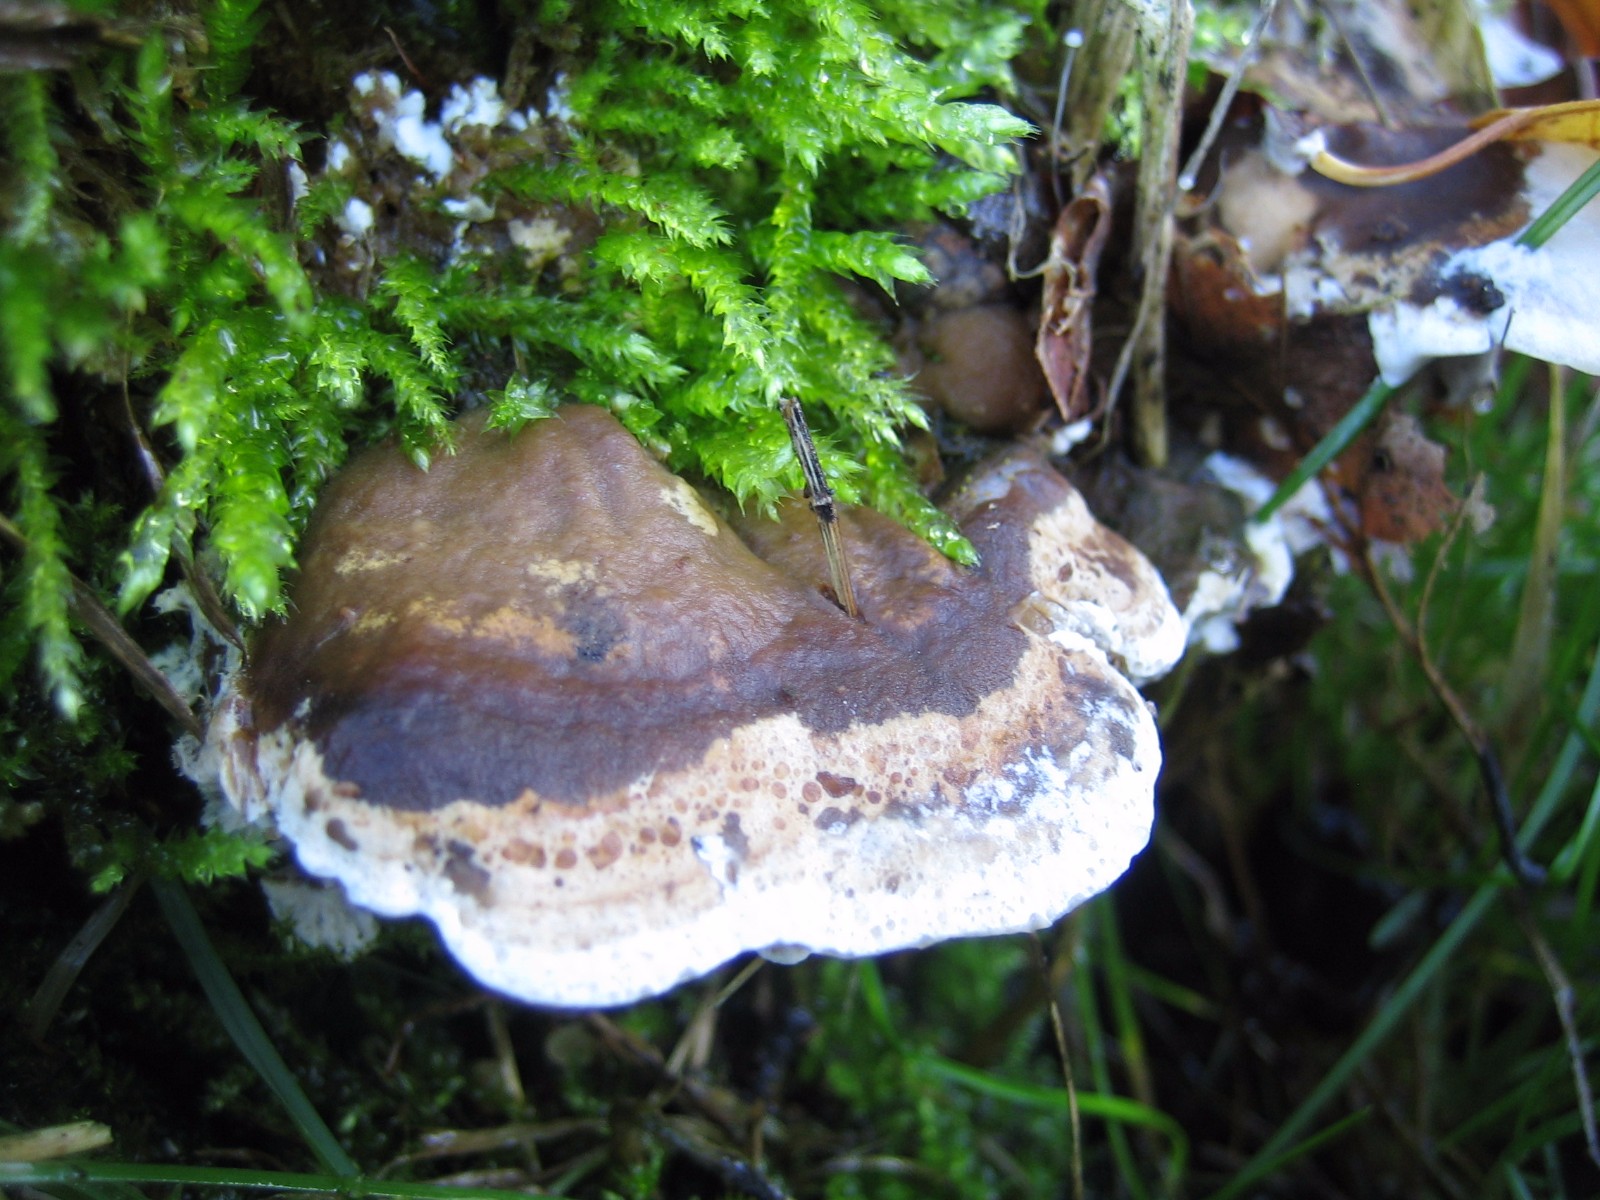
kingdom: Fungi
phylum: Basidiomycota
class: Agaricomycetes
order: Polyporales
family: Phanerochaetaceae
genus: Bjerkandera
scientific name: Bjerkandera fumosa
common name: grågul sodporesvamp
